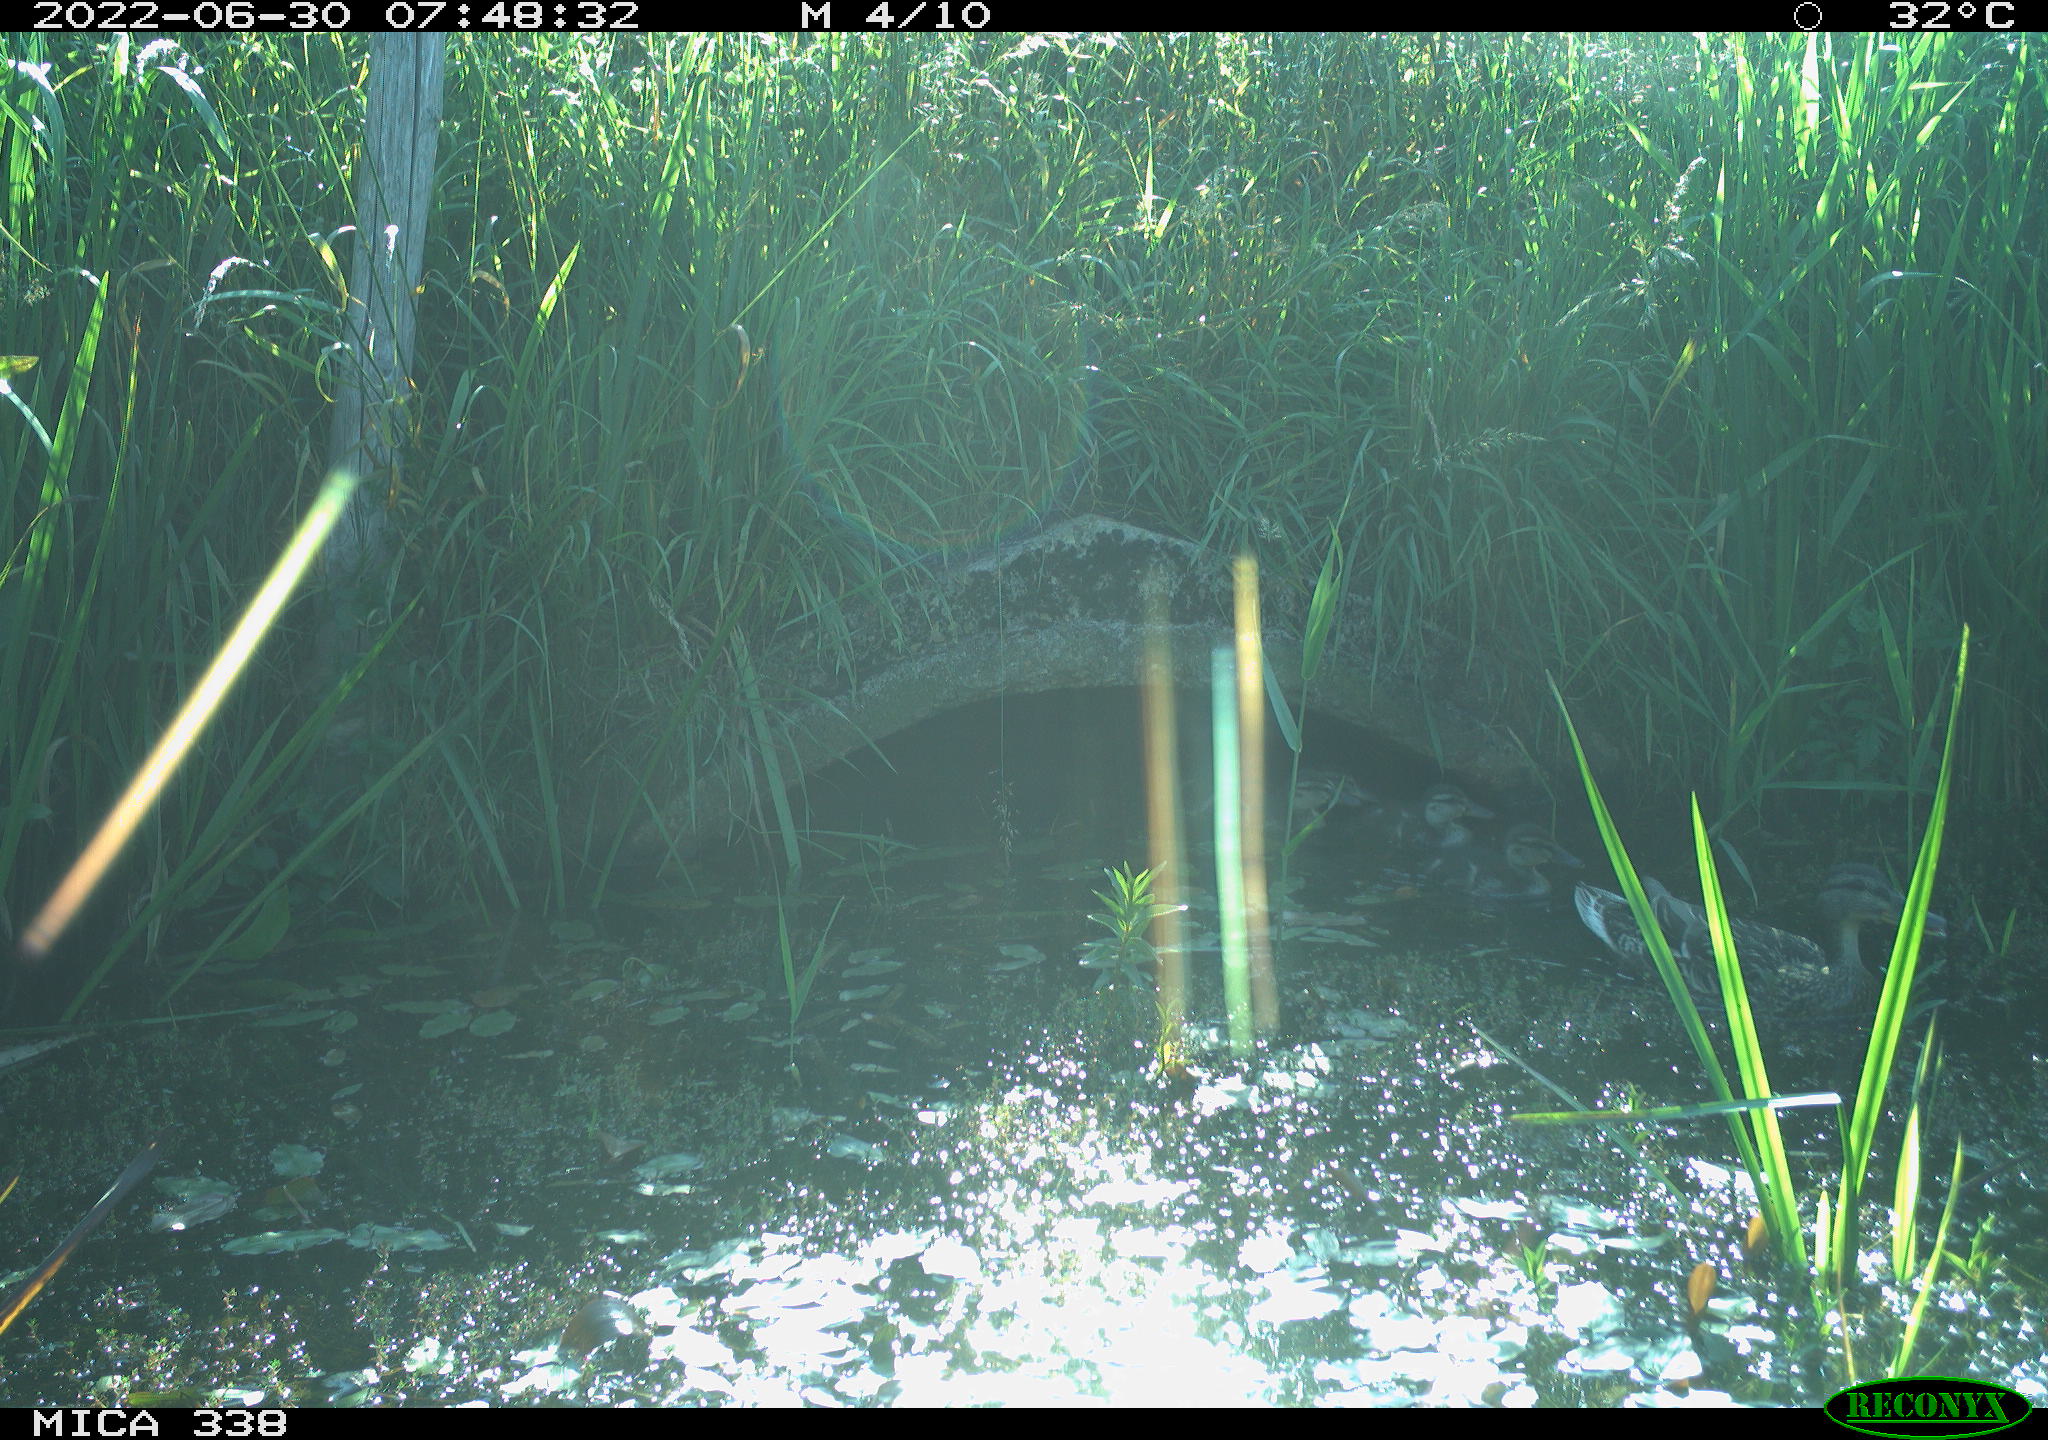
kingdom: Animalia
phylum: Chordata
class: Aves
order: Anseriformes
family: Anatidae
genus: Anas
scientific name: Anas platyrhynchos
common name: Mallard
